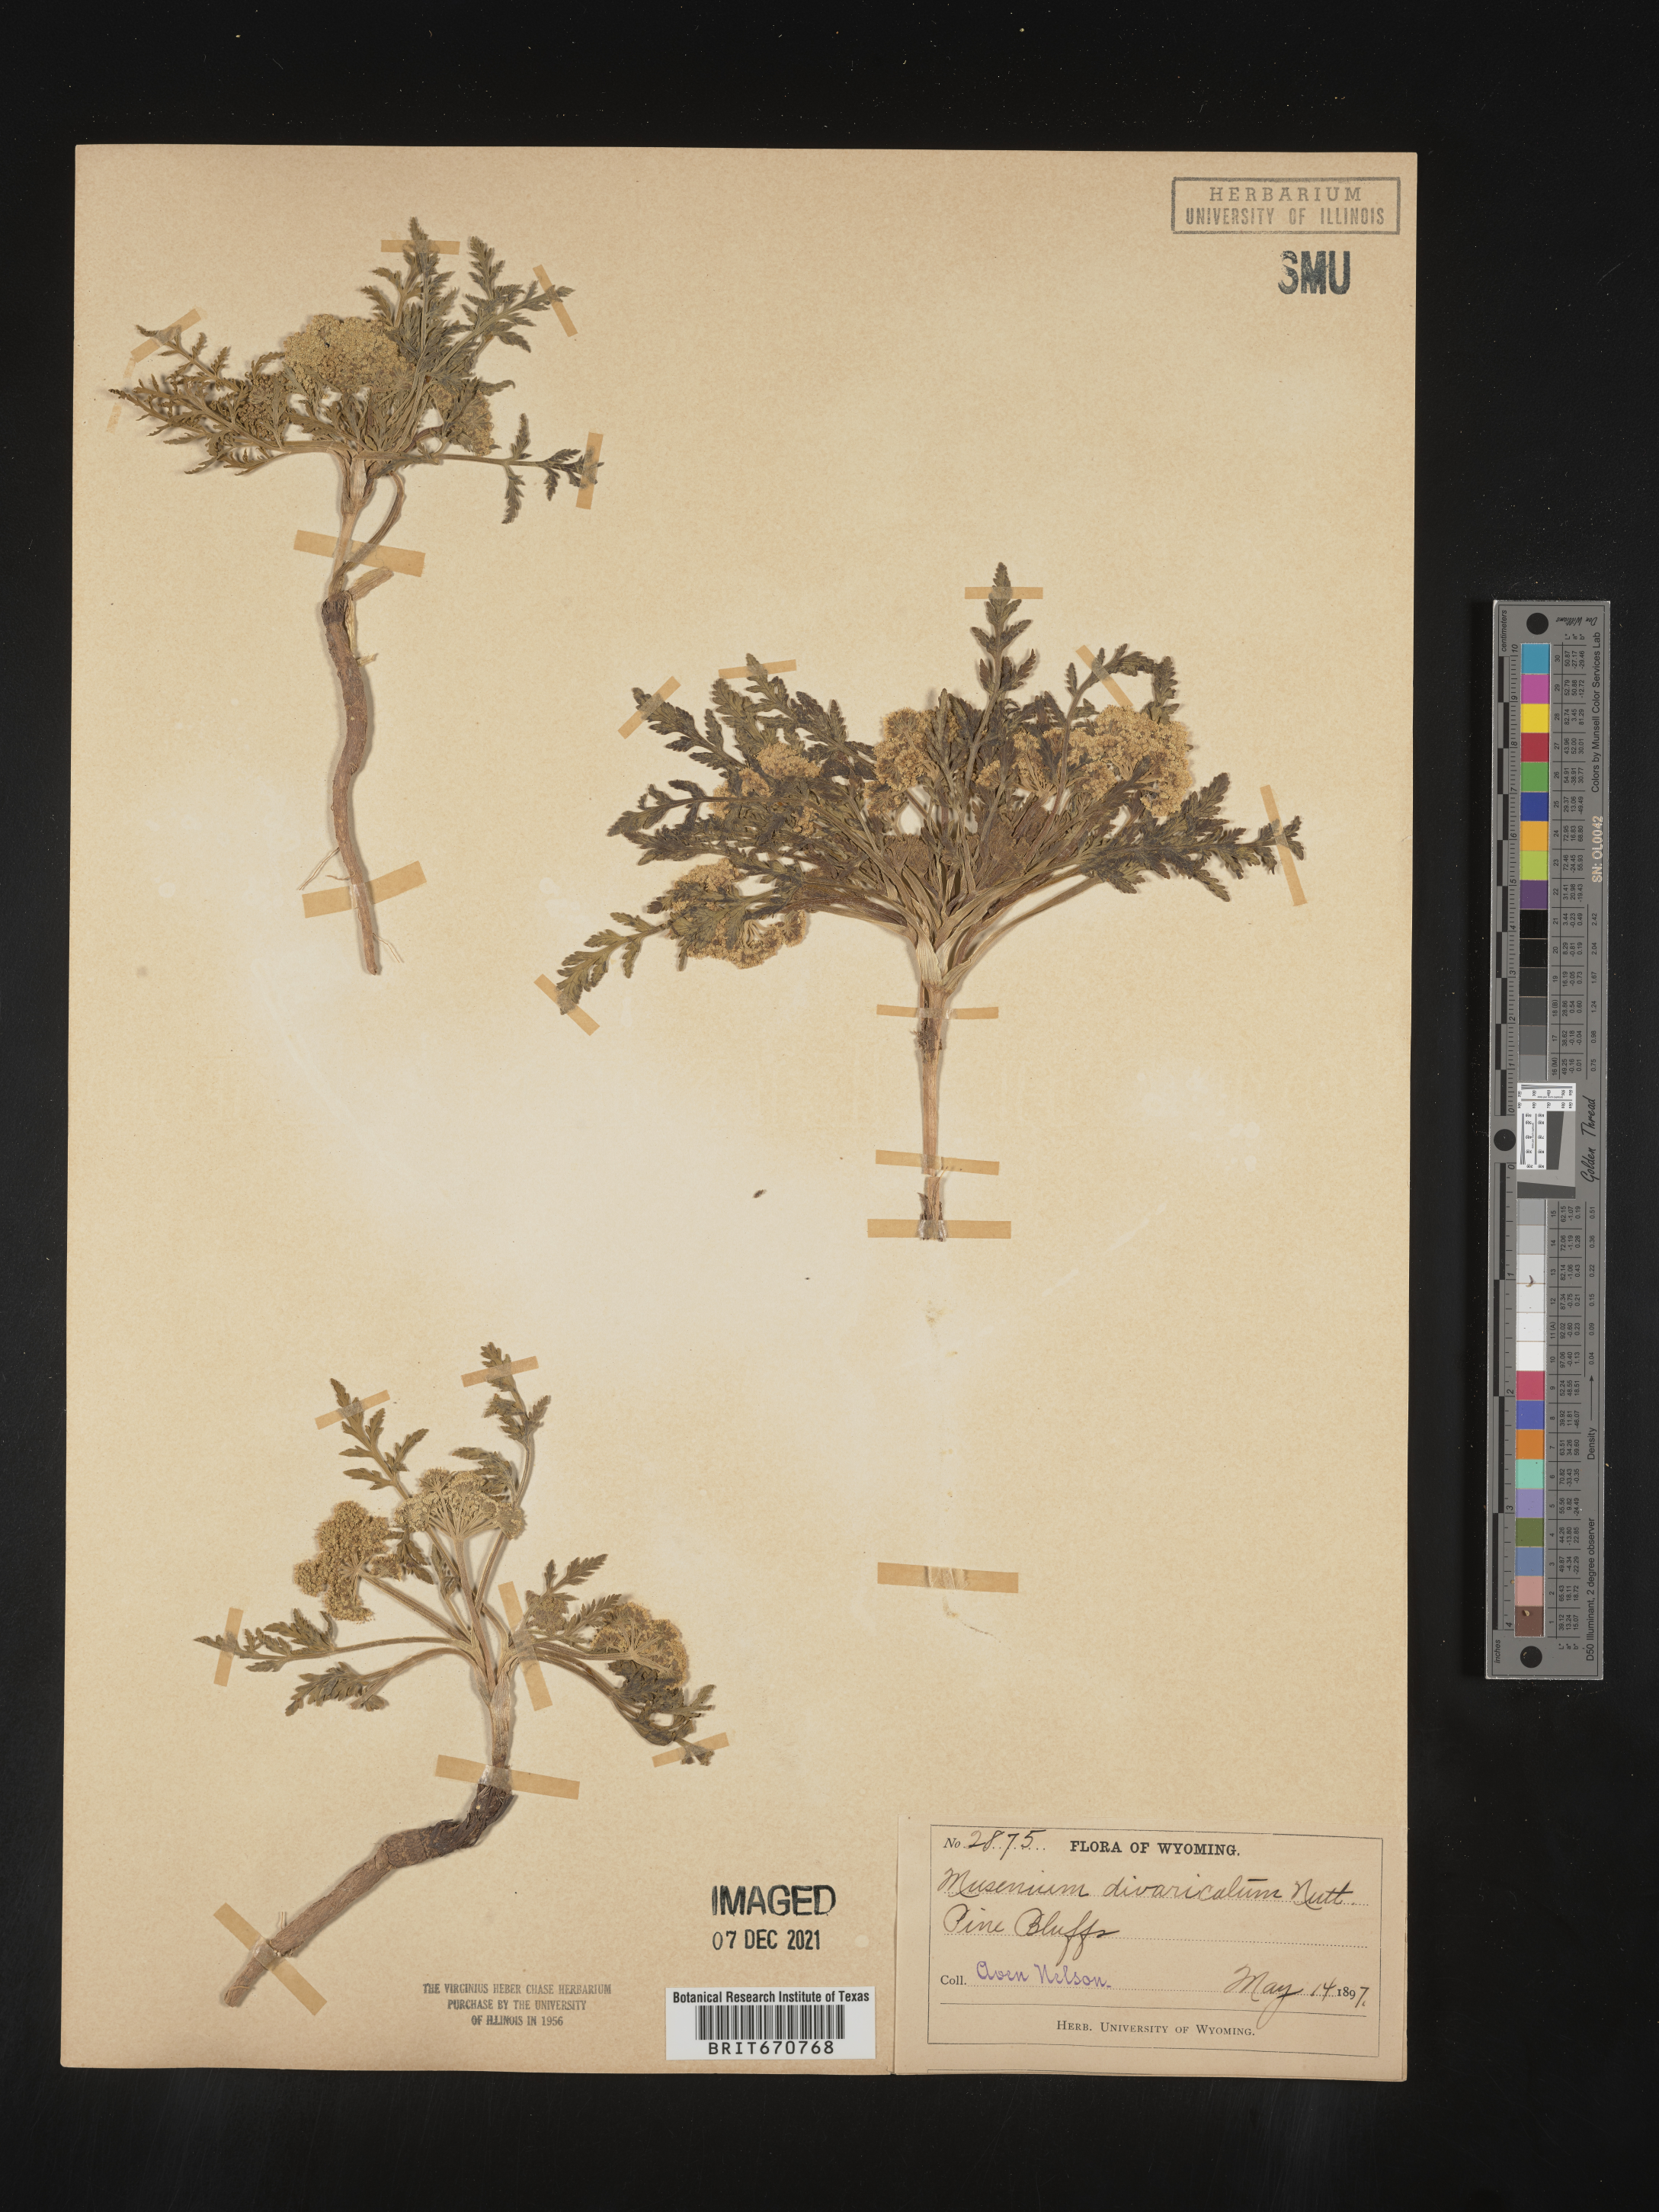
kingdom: Plantae
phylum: Tracheophyta
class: Magnoliopsida
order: Apiales
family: Apiaceae
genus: Musineon
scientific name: Musineon
